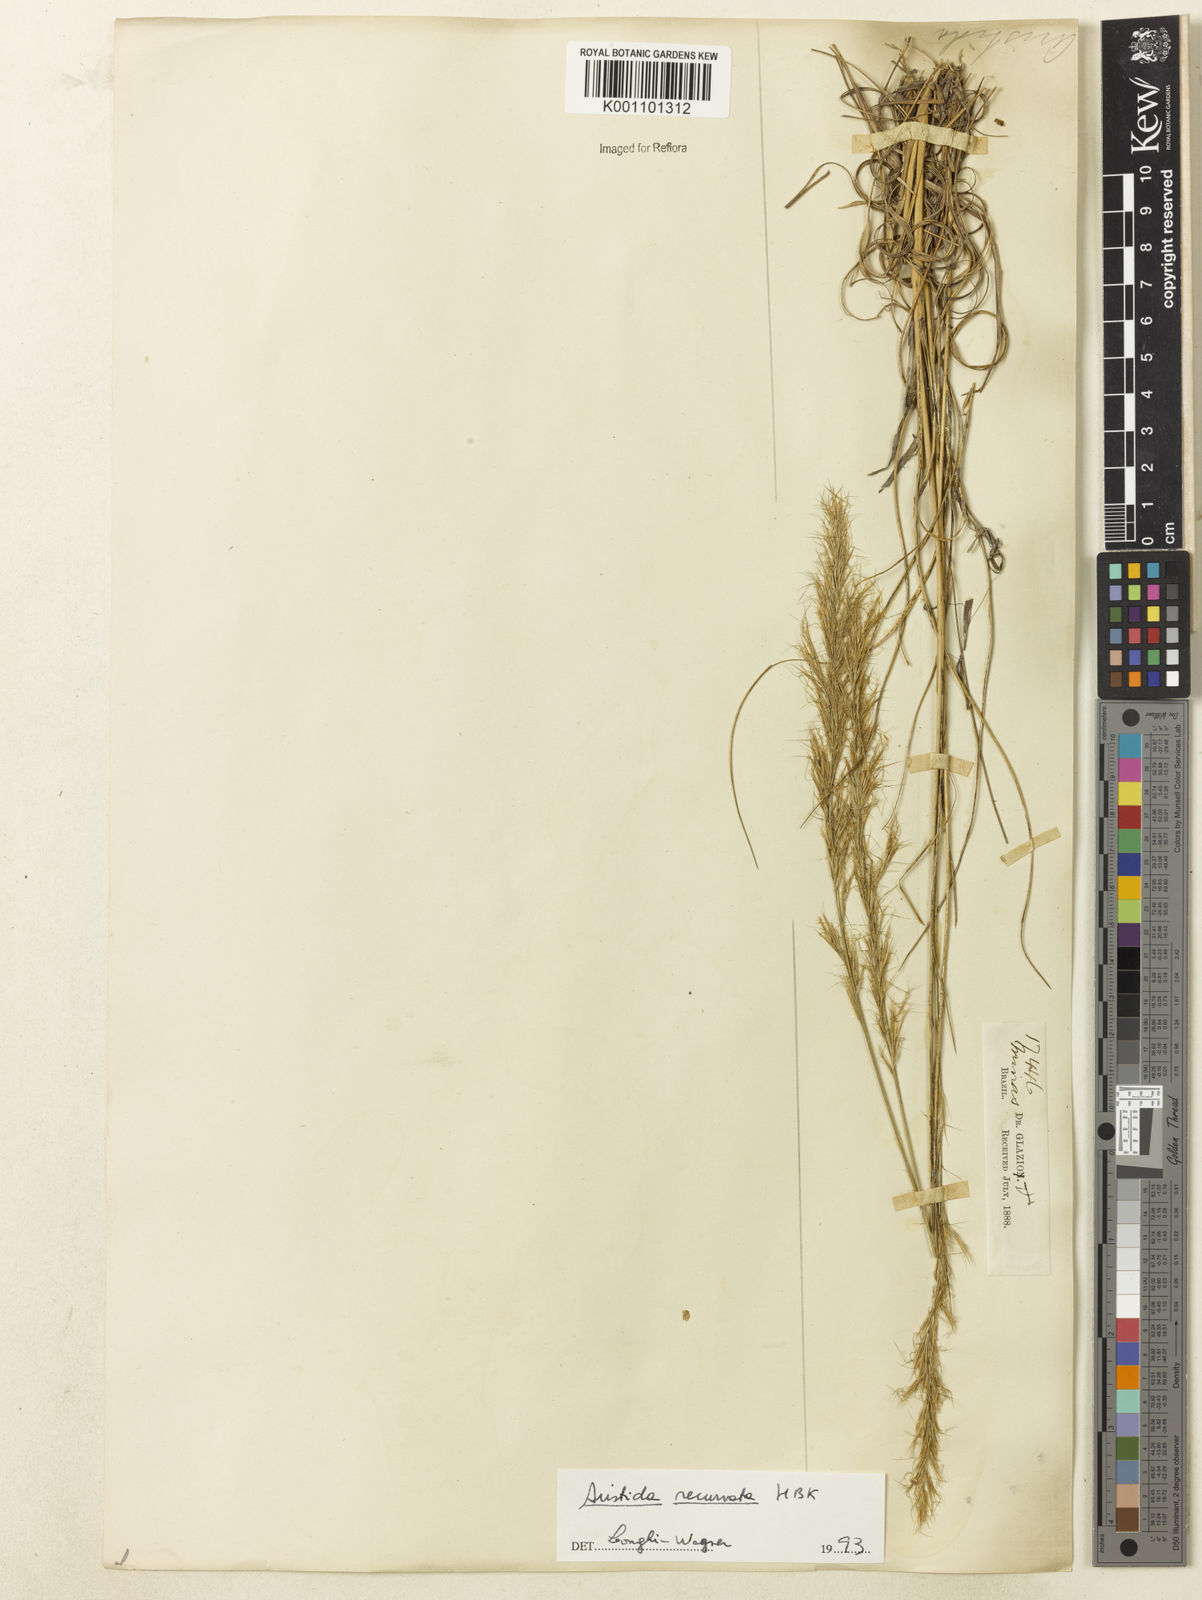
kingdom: Plantae
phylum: Tracheophyta
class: Liliopsida
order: Poales
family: Poaceae
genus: Aristida
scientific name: Aristida recurvata
